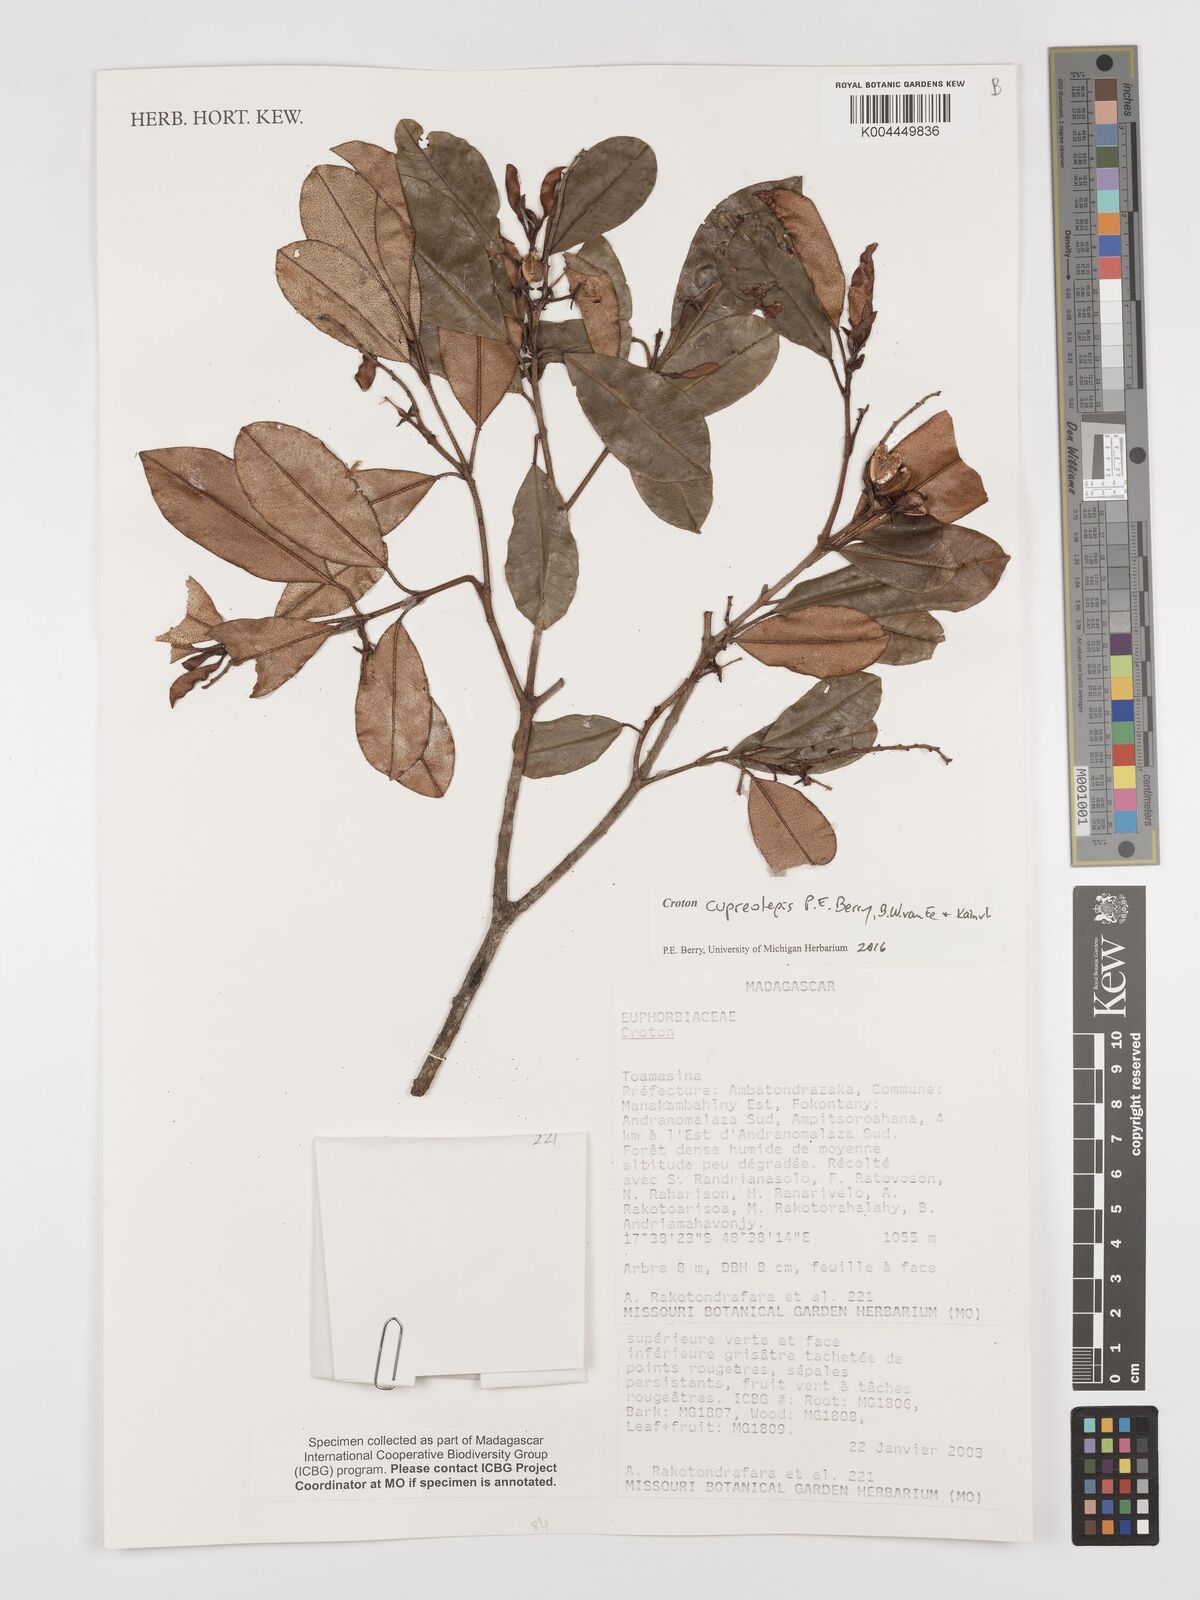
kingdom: Plantae
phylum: Tracheophyta
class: Magnoliopsida
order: Malpighiales
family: Euphorbiaceae
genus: Croton
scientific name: Croton cupreolepis
